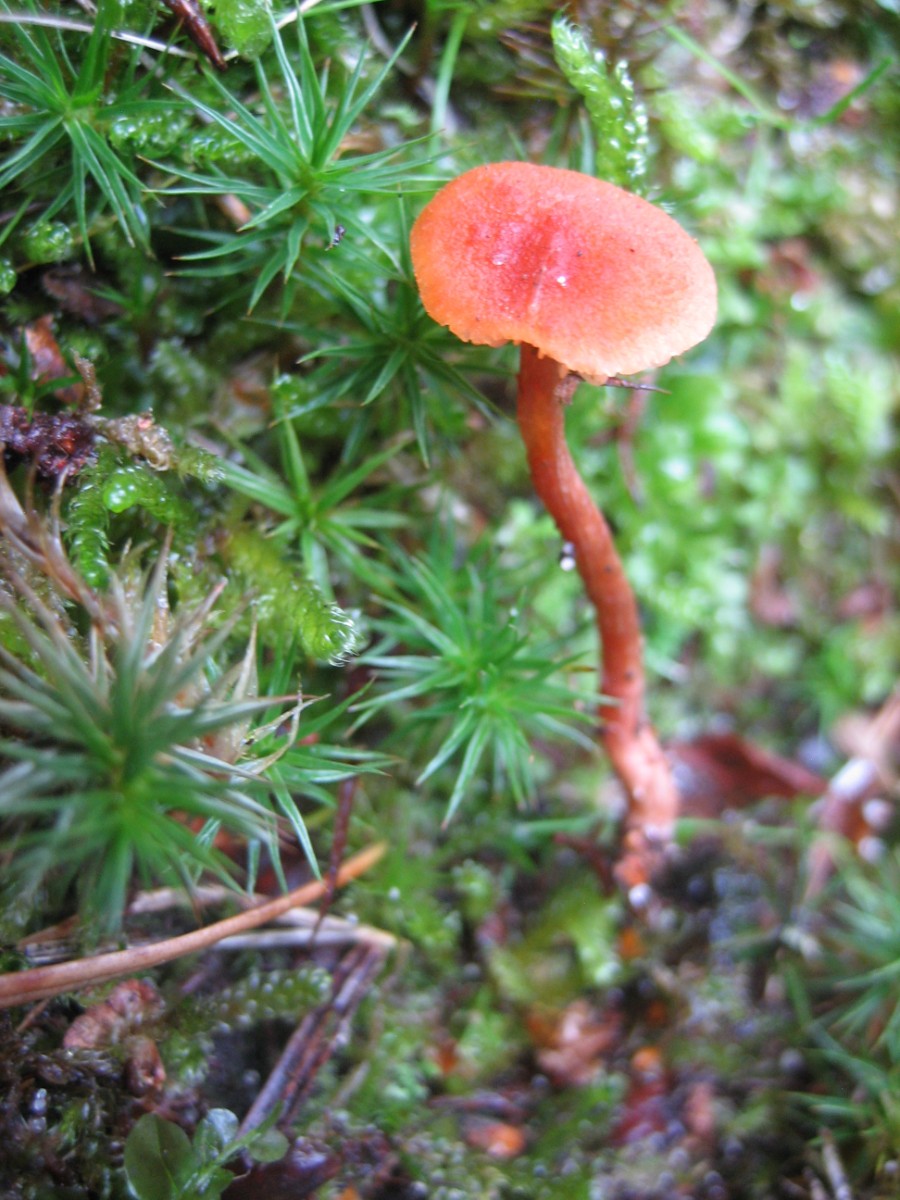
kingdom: Fungi
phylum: Basidiomycota
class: Agaricomycetes
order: Agaricales
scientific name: Agaricales
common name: champignonordenen
